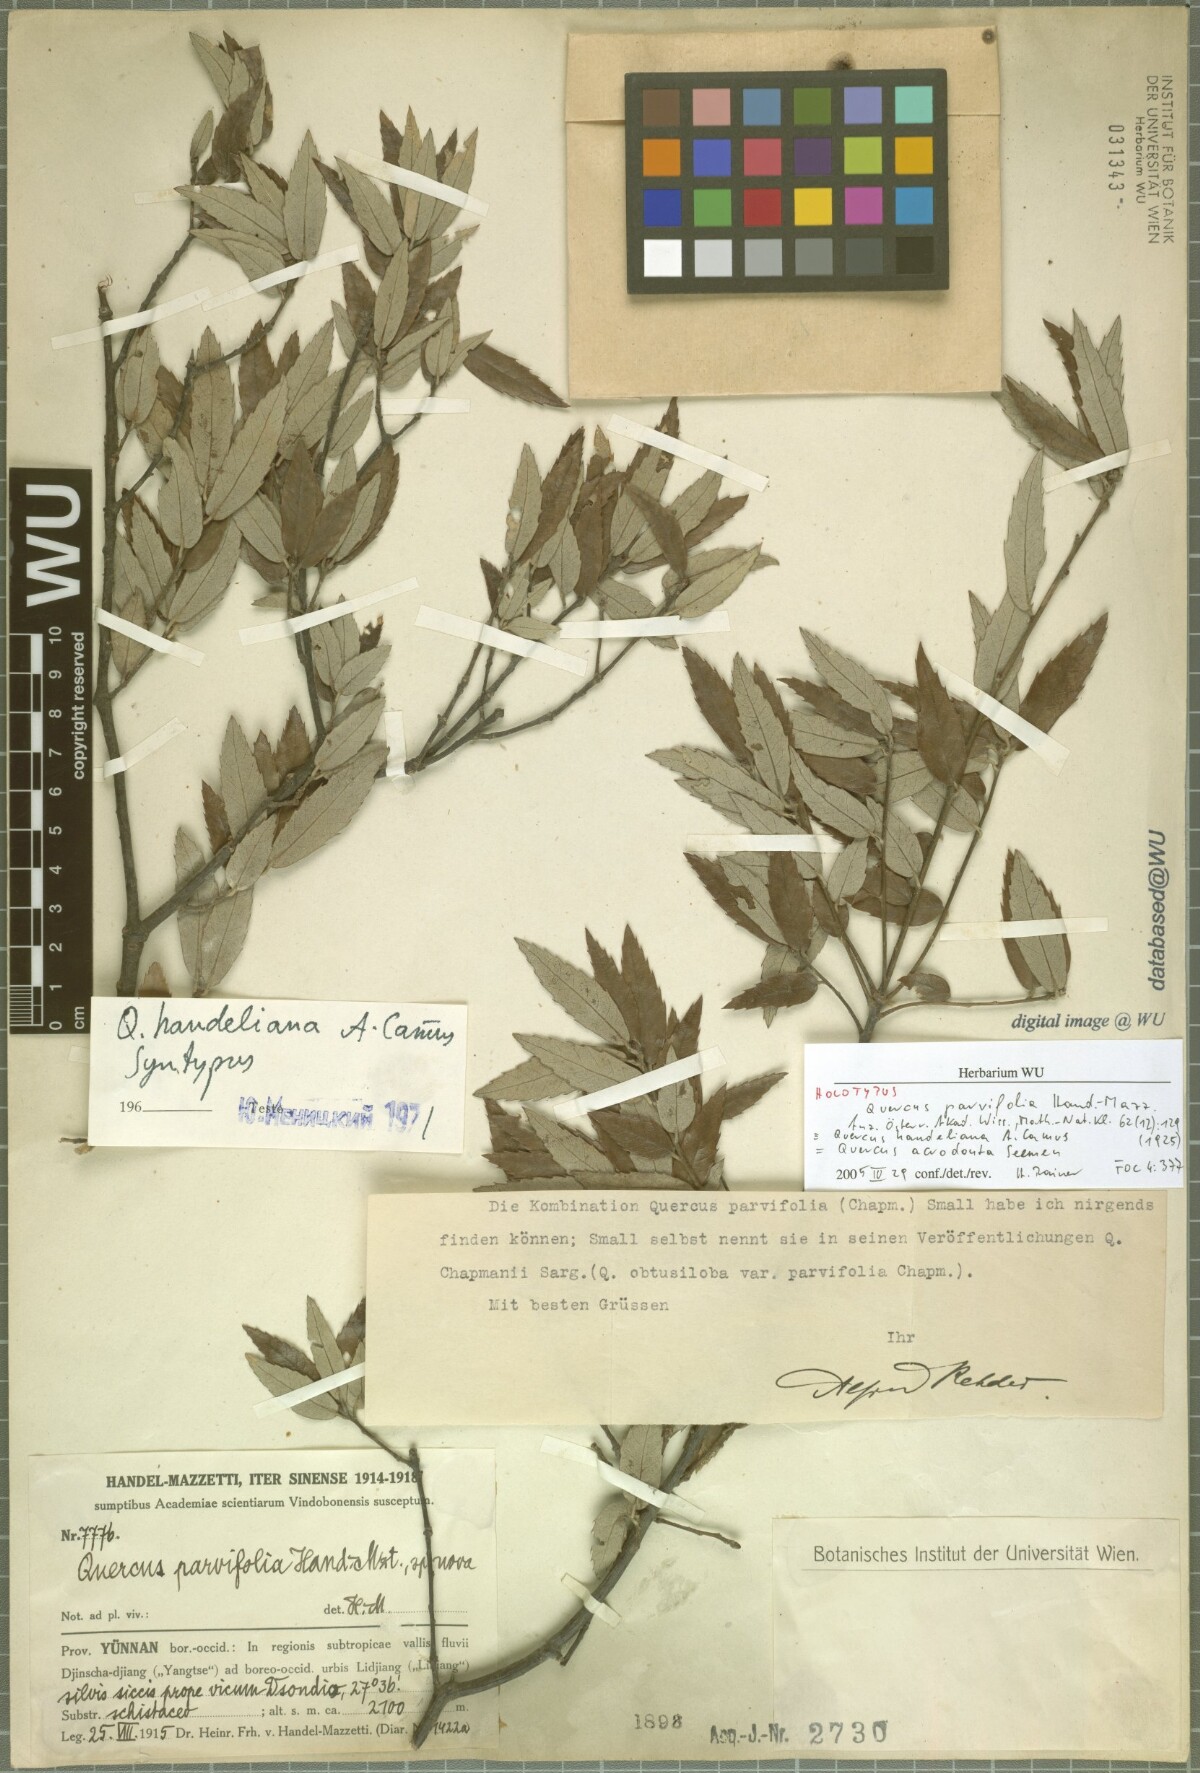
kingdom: Plantae
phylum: Tracheophyta
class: Magnoliopsida
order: Fagales
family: Fagaceae
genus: Quercus
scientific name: Quercus handeliana
